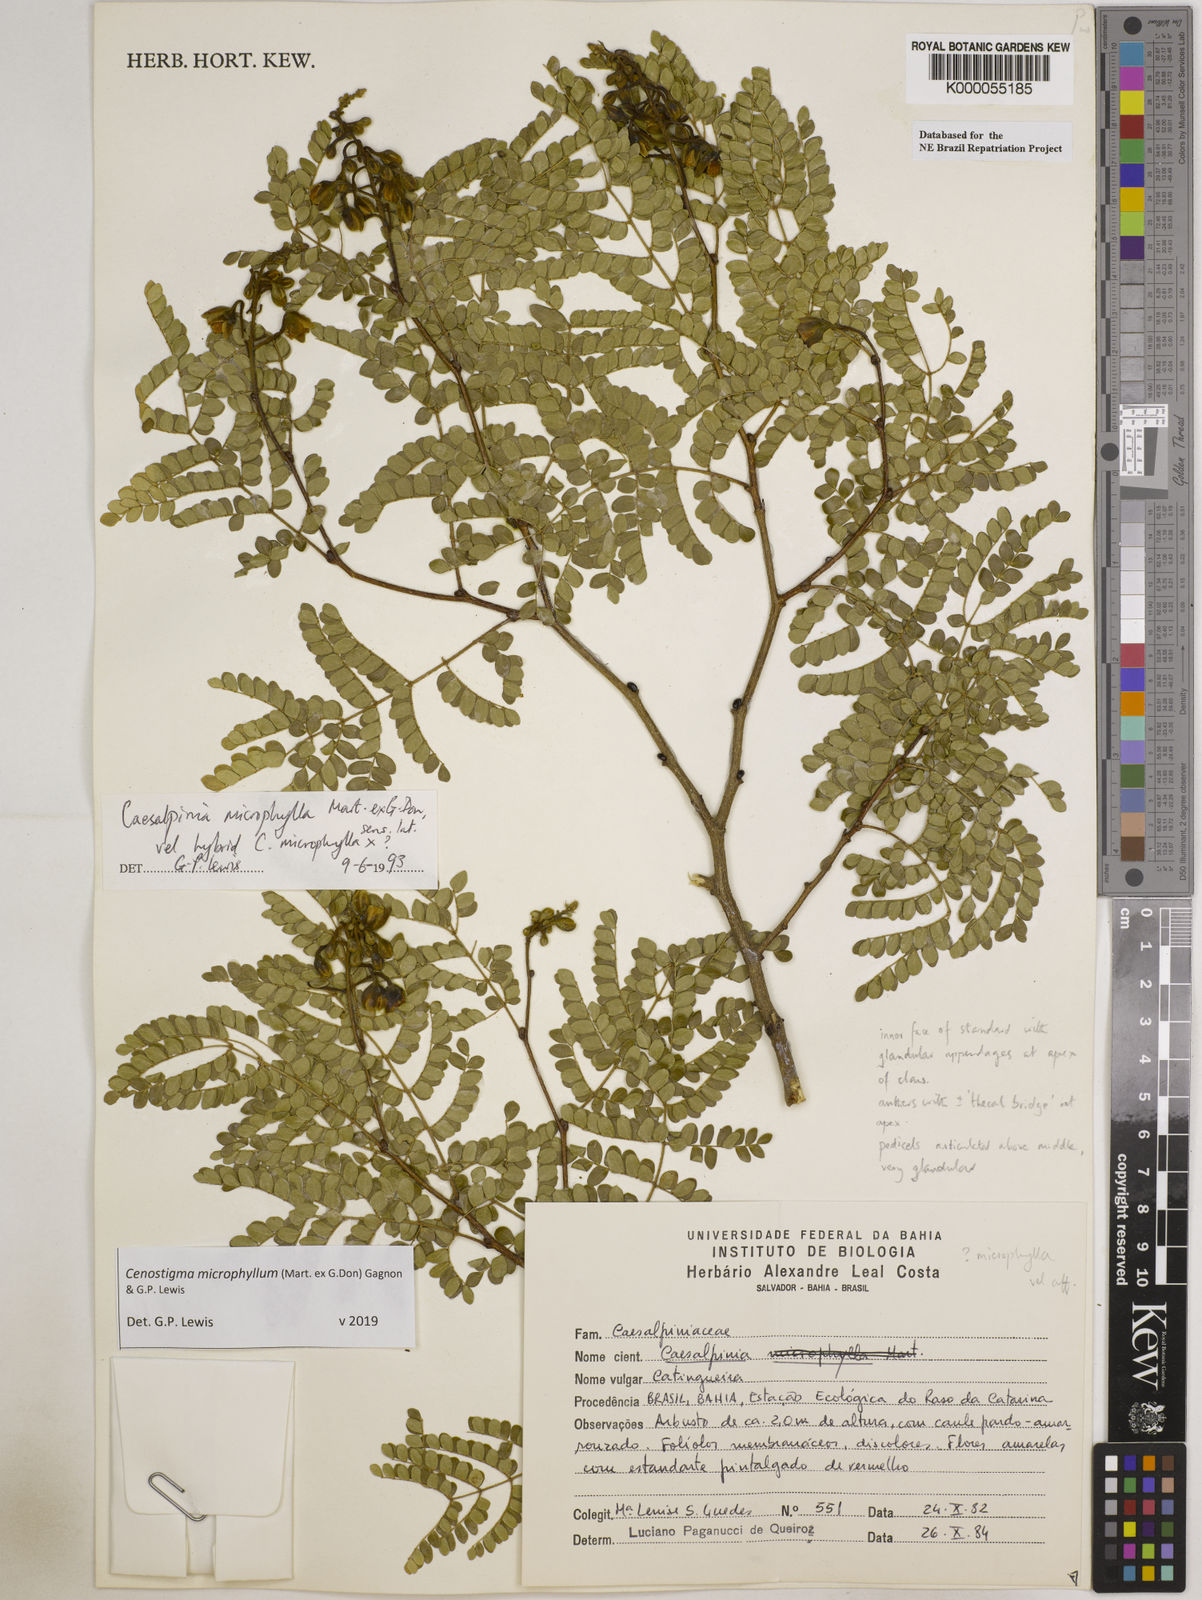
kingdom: Plantae
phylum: Tracheophyta
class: Magnoliopsida
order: Fabales
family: Fabaceae
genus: Cenostigma
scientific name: Cenostigma microphyllum
